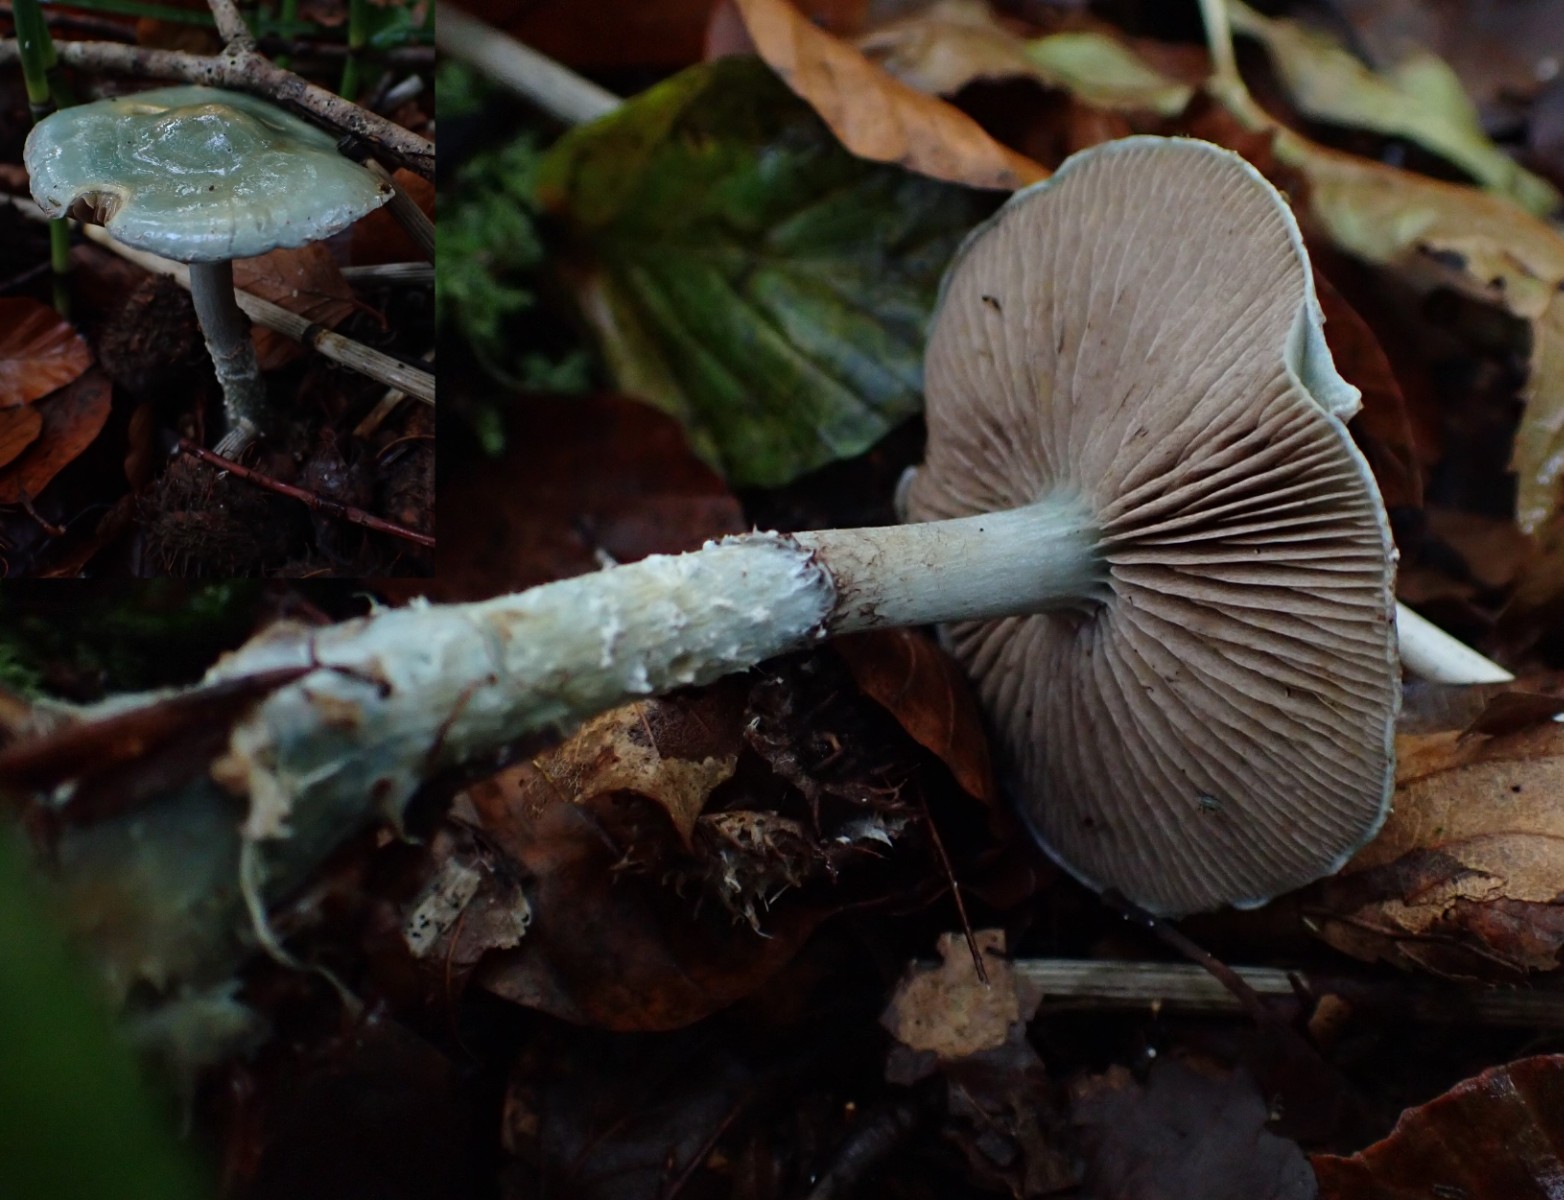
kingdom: Fungi
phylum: Basidiomycota
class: Agaricomycetes
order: Agaricales
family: Strophariaceae
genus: Stropharia
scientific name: Stropharia cyanea
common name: blågrøn bredblad
